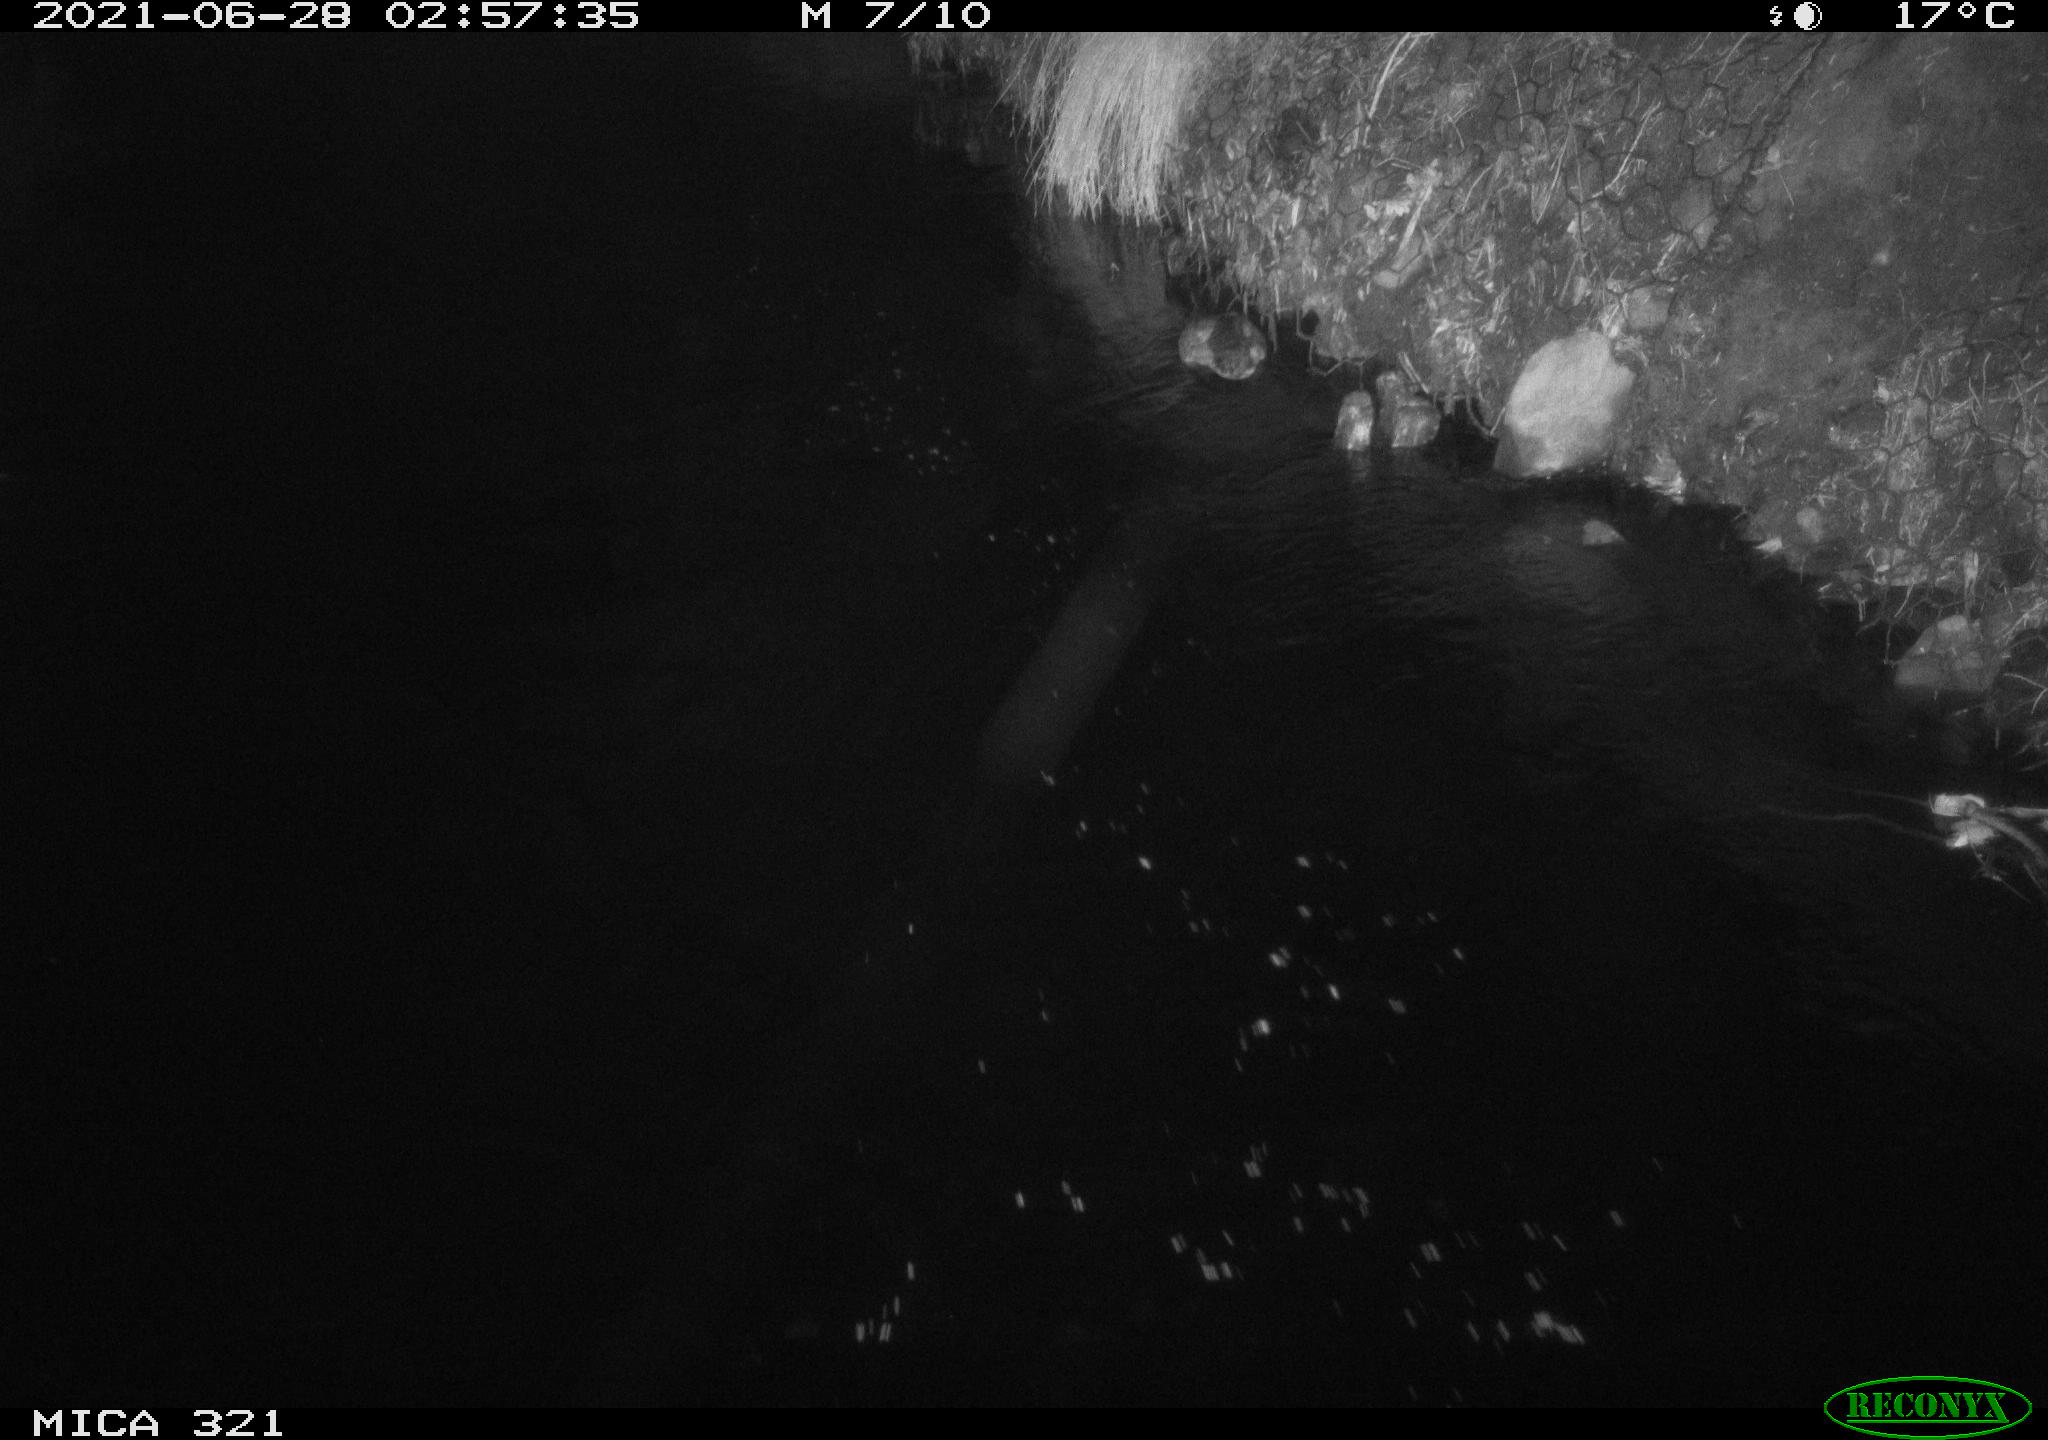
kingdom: Animalia
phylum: Chordata
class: Aves
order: Anseriformes
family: Anatidae
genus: Anas
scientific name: Anas platyrhynchos
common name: Mallard
